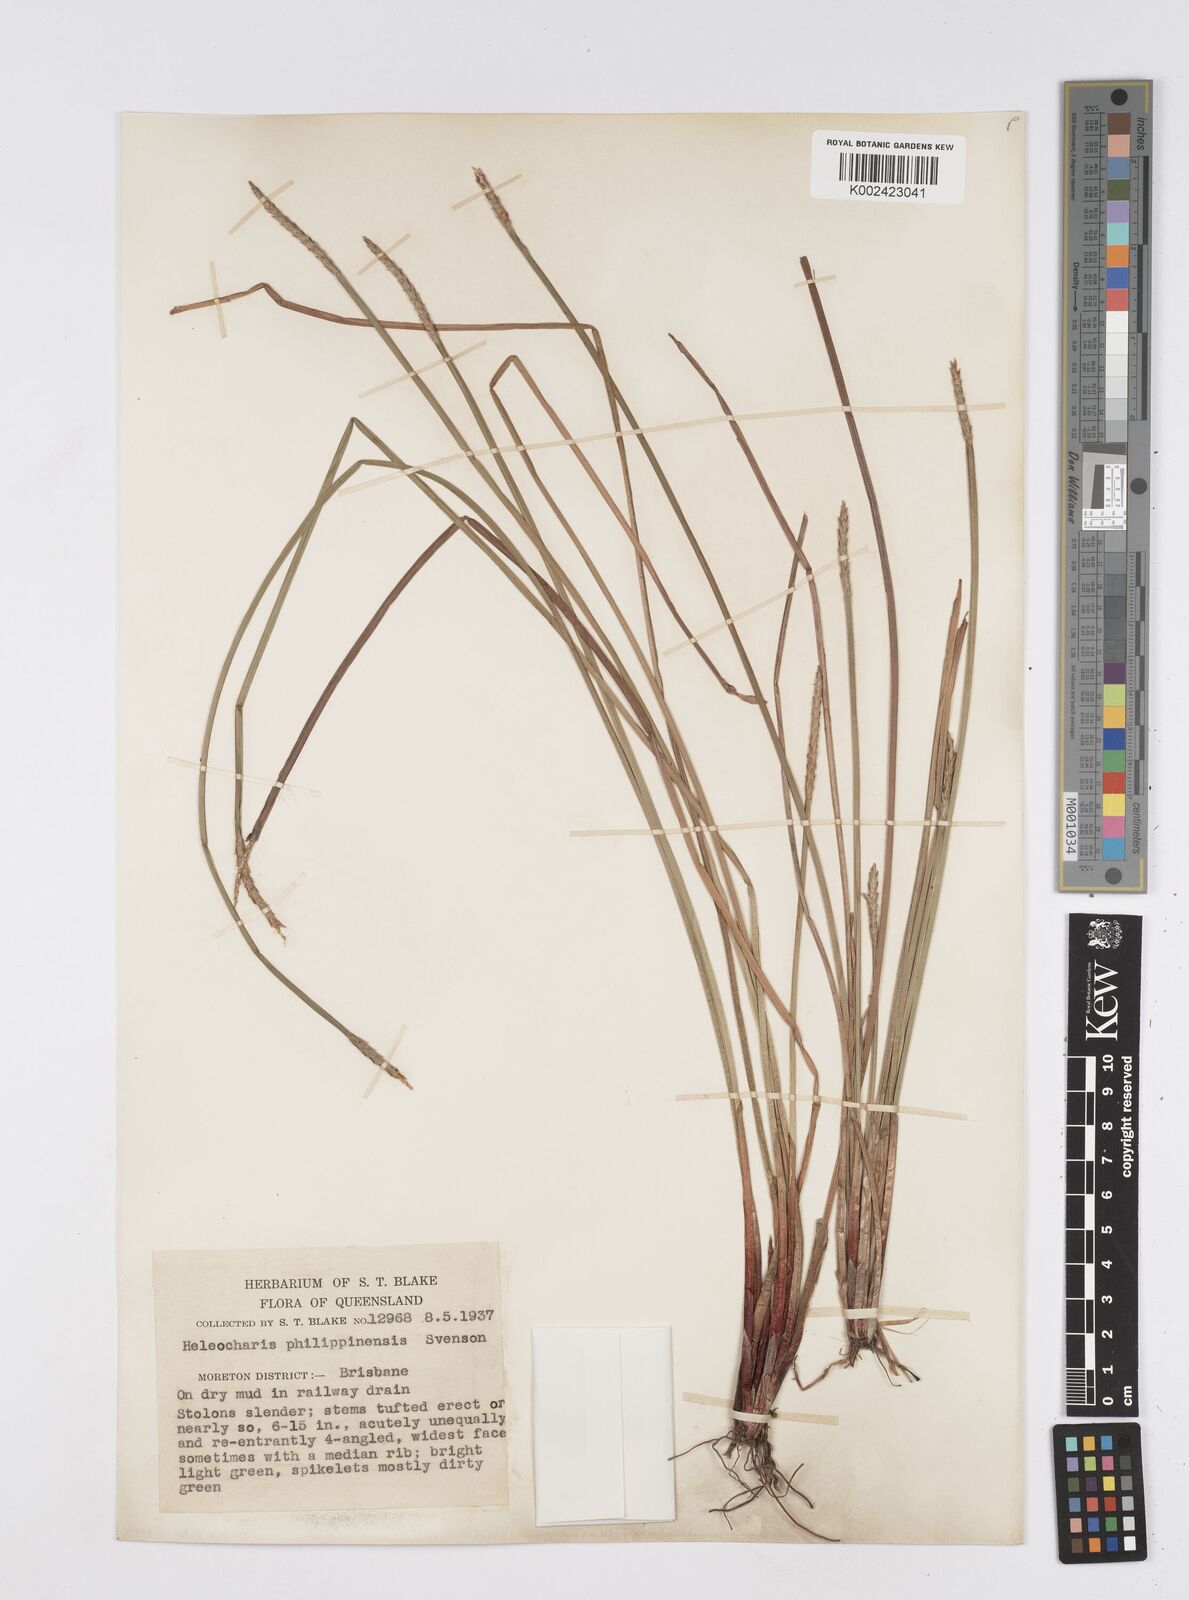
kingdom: Plantae
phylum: Tracheophyta
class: Liliopsida
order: Poales
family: Cyperaceae
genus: Eleocharis
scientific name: Eleocharis nuda
